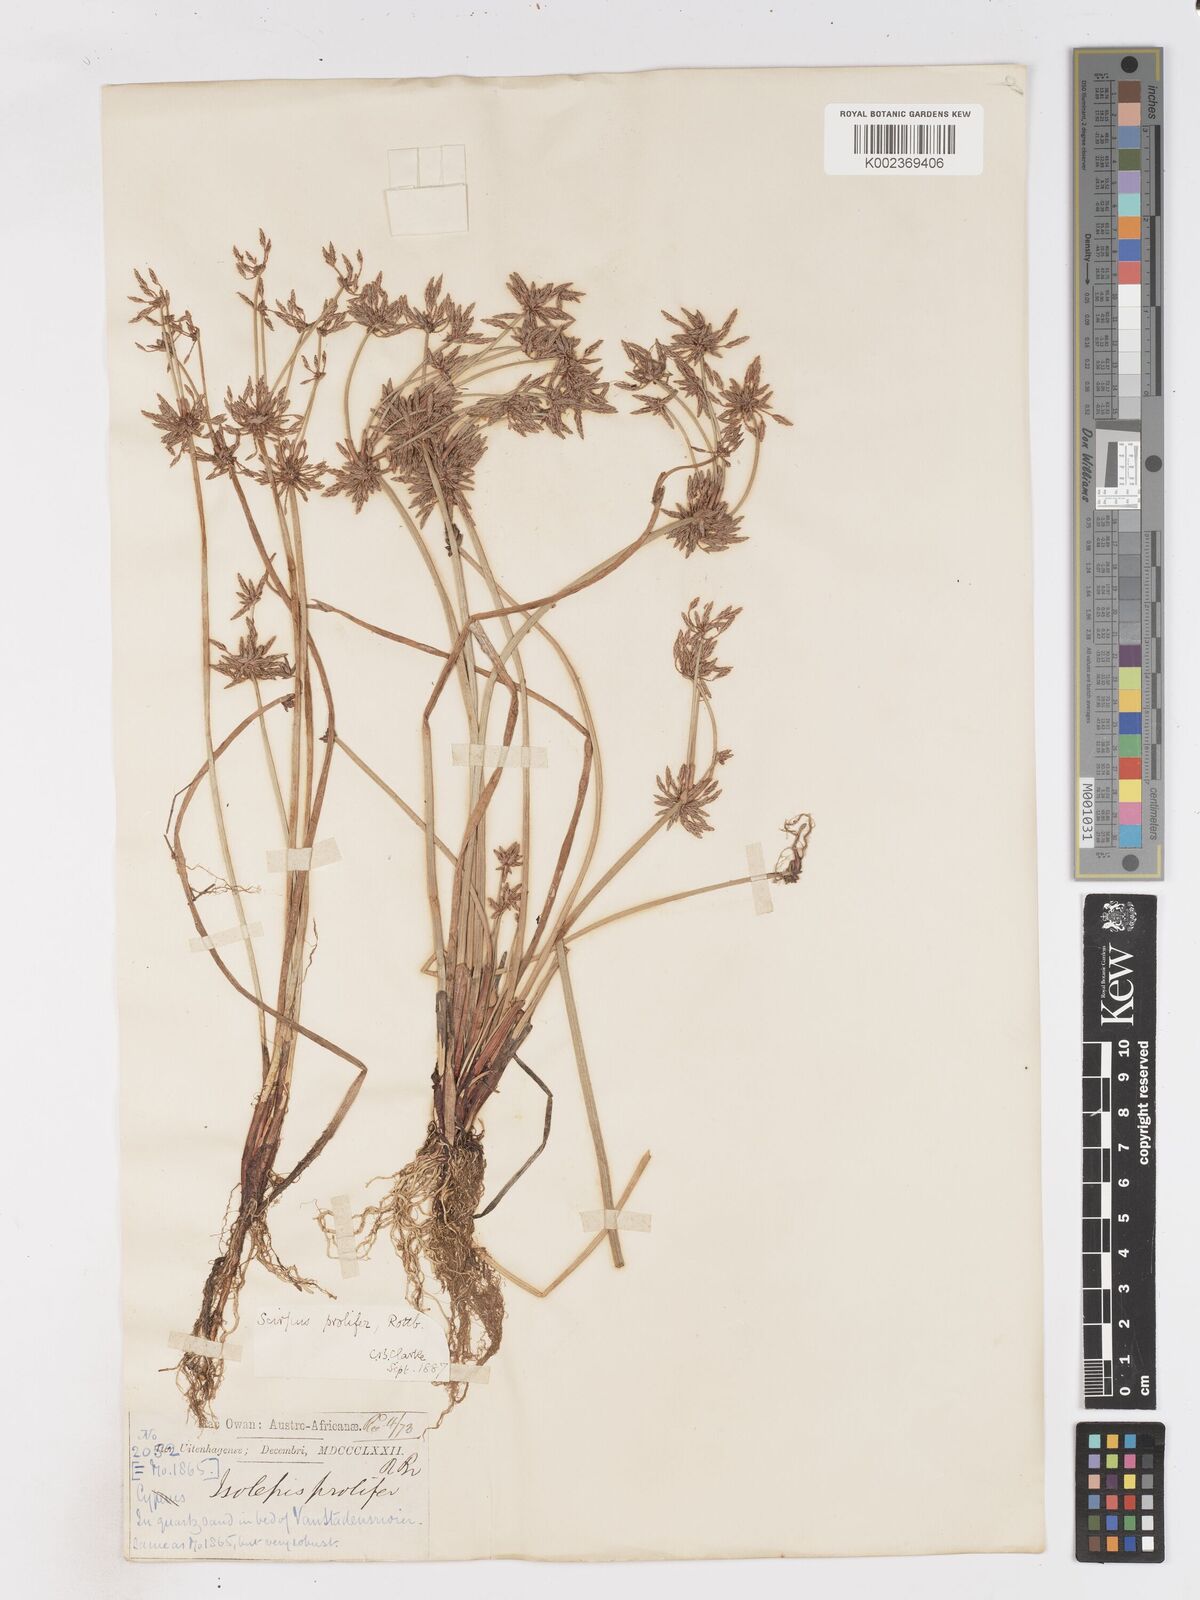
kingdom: Plantae
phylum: Tracheophyta
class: Liliopsida
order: Poales
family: Cyperaceae
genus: Isolepis
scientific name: Isolepis prolifera
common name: Proliferating bulrush
